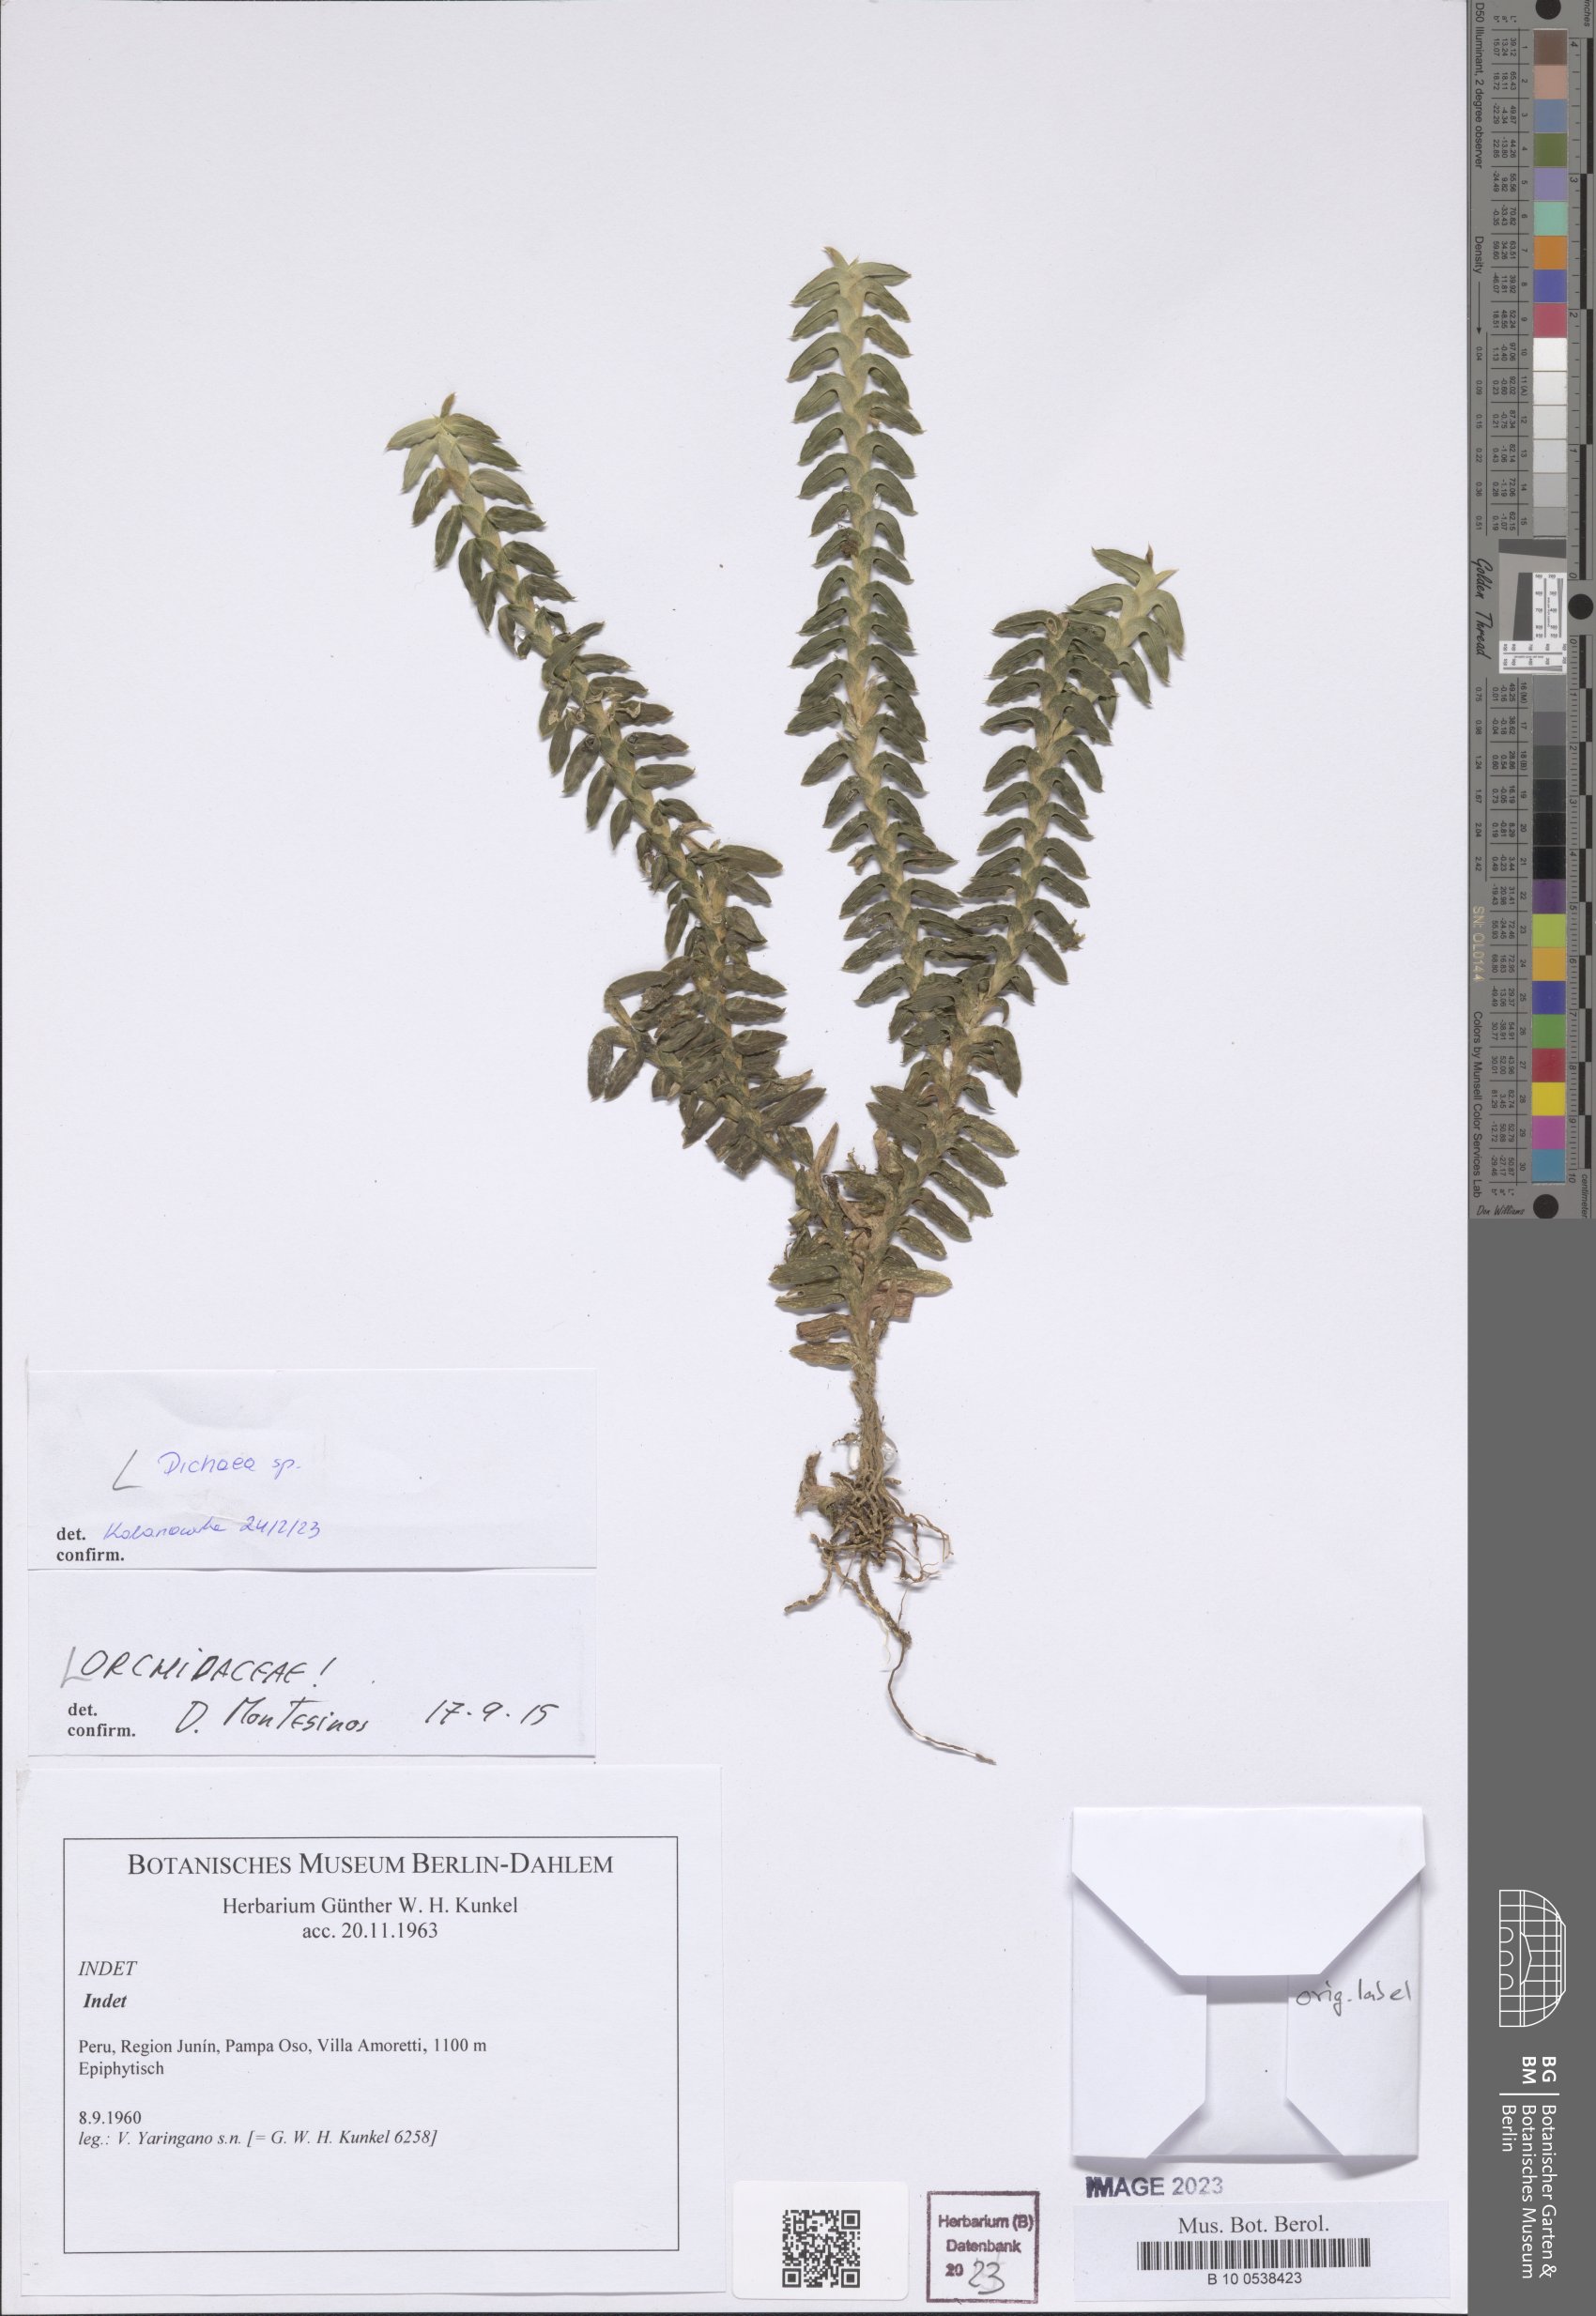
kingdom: Plantae
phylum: Tracheophyta
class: Liliopsida
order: Asparagales
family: Orchidaceae
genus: Dichaea
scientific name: Dichaea
